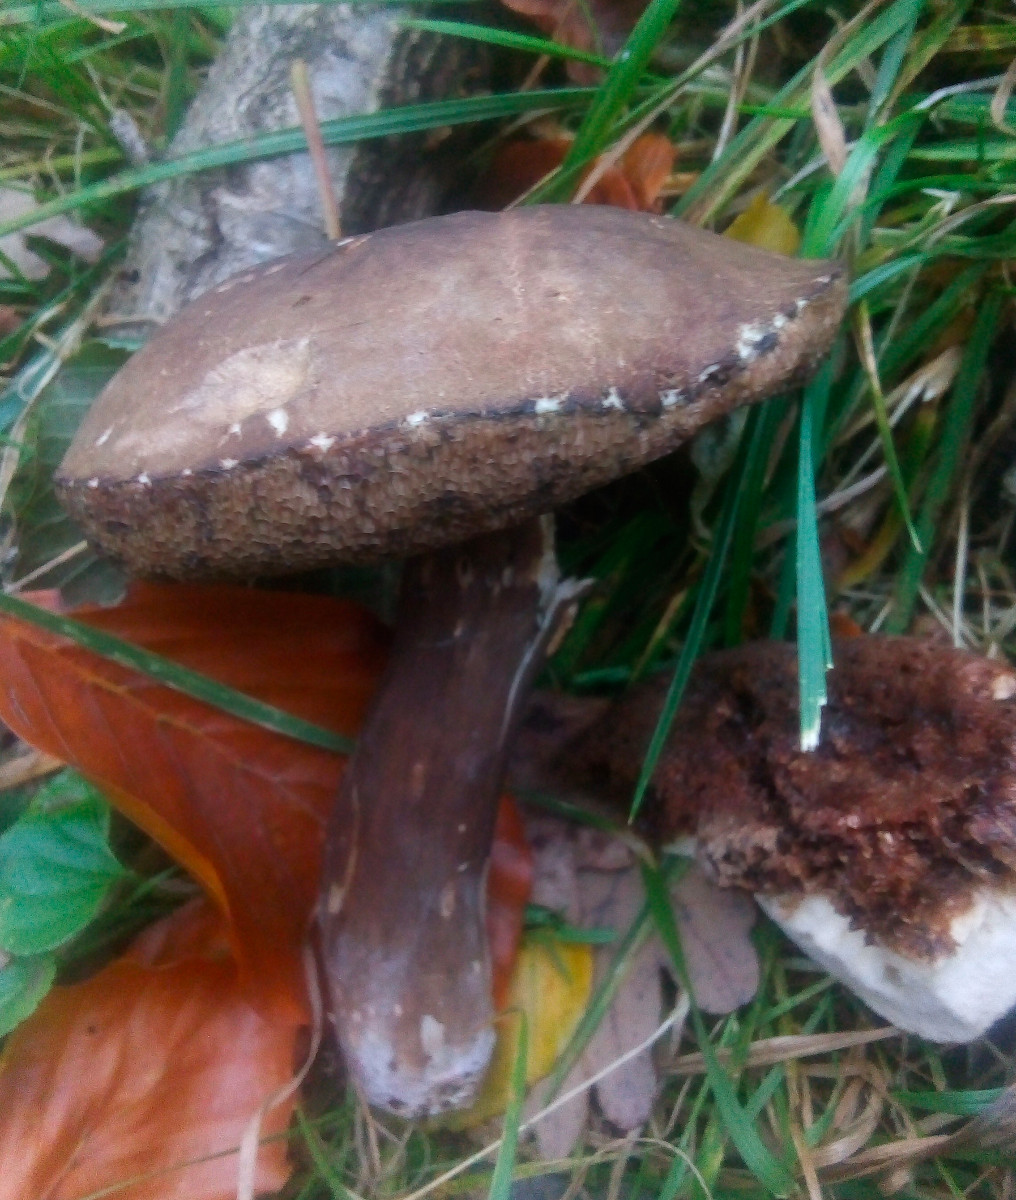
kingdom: Fungi
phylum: Basidiomycota
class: Agaricomycetes
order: Boletales
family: Boletaceae
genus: Porphyrellus
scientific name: Porphyrellus porphyrosporus
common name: sodrørhat
